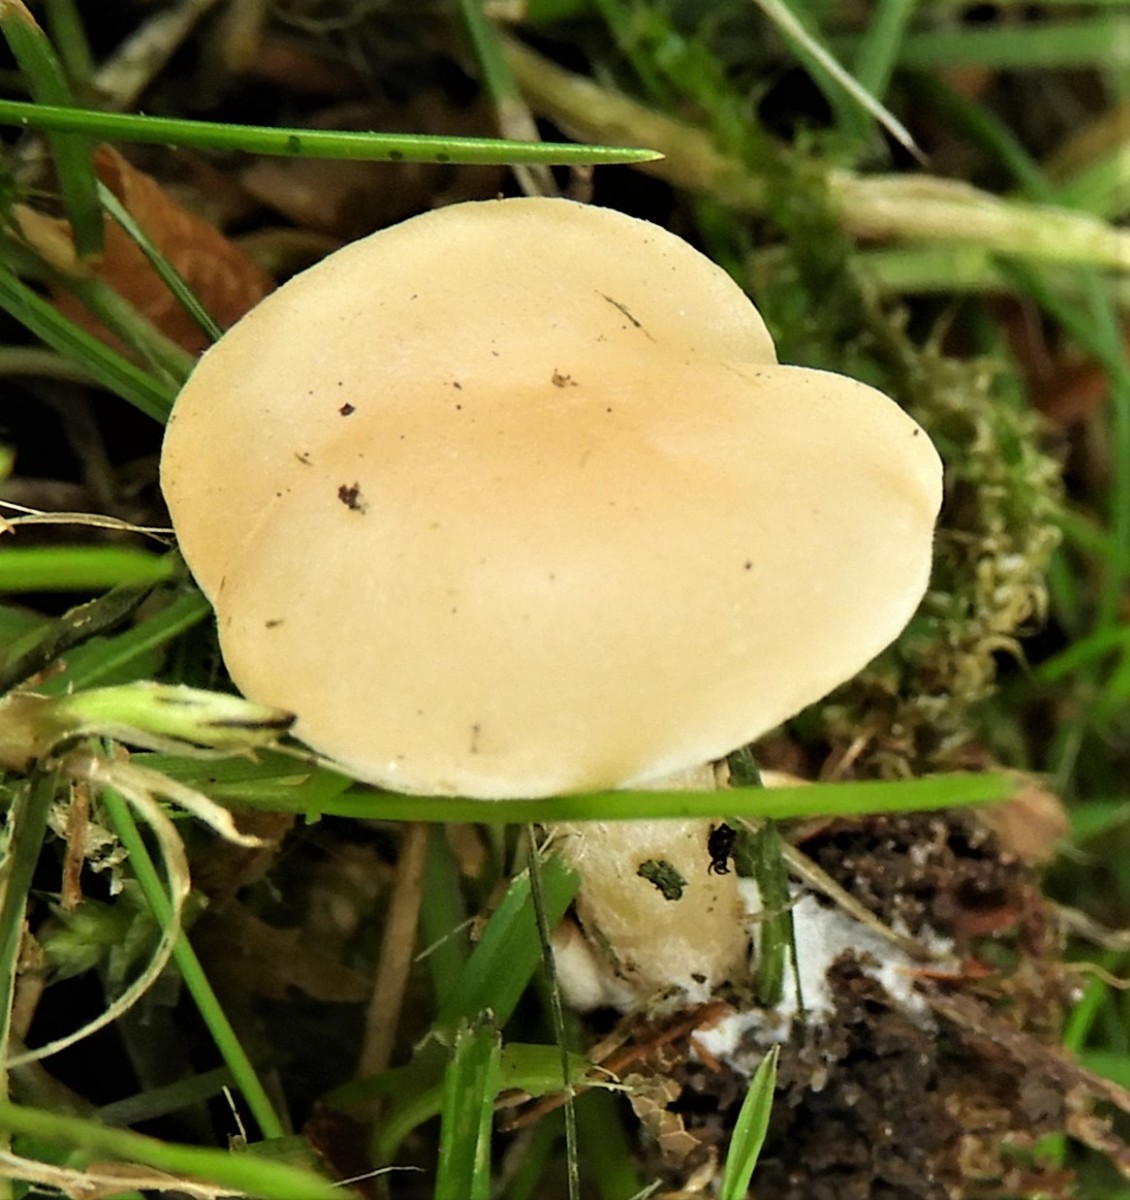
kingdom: Fungi
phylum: Basidiomycota
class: Agaricomycetes
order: Agaricales
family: Tricholomataceae
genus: Clitocybe
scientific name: Clitocybe agrestis
